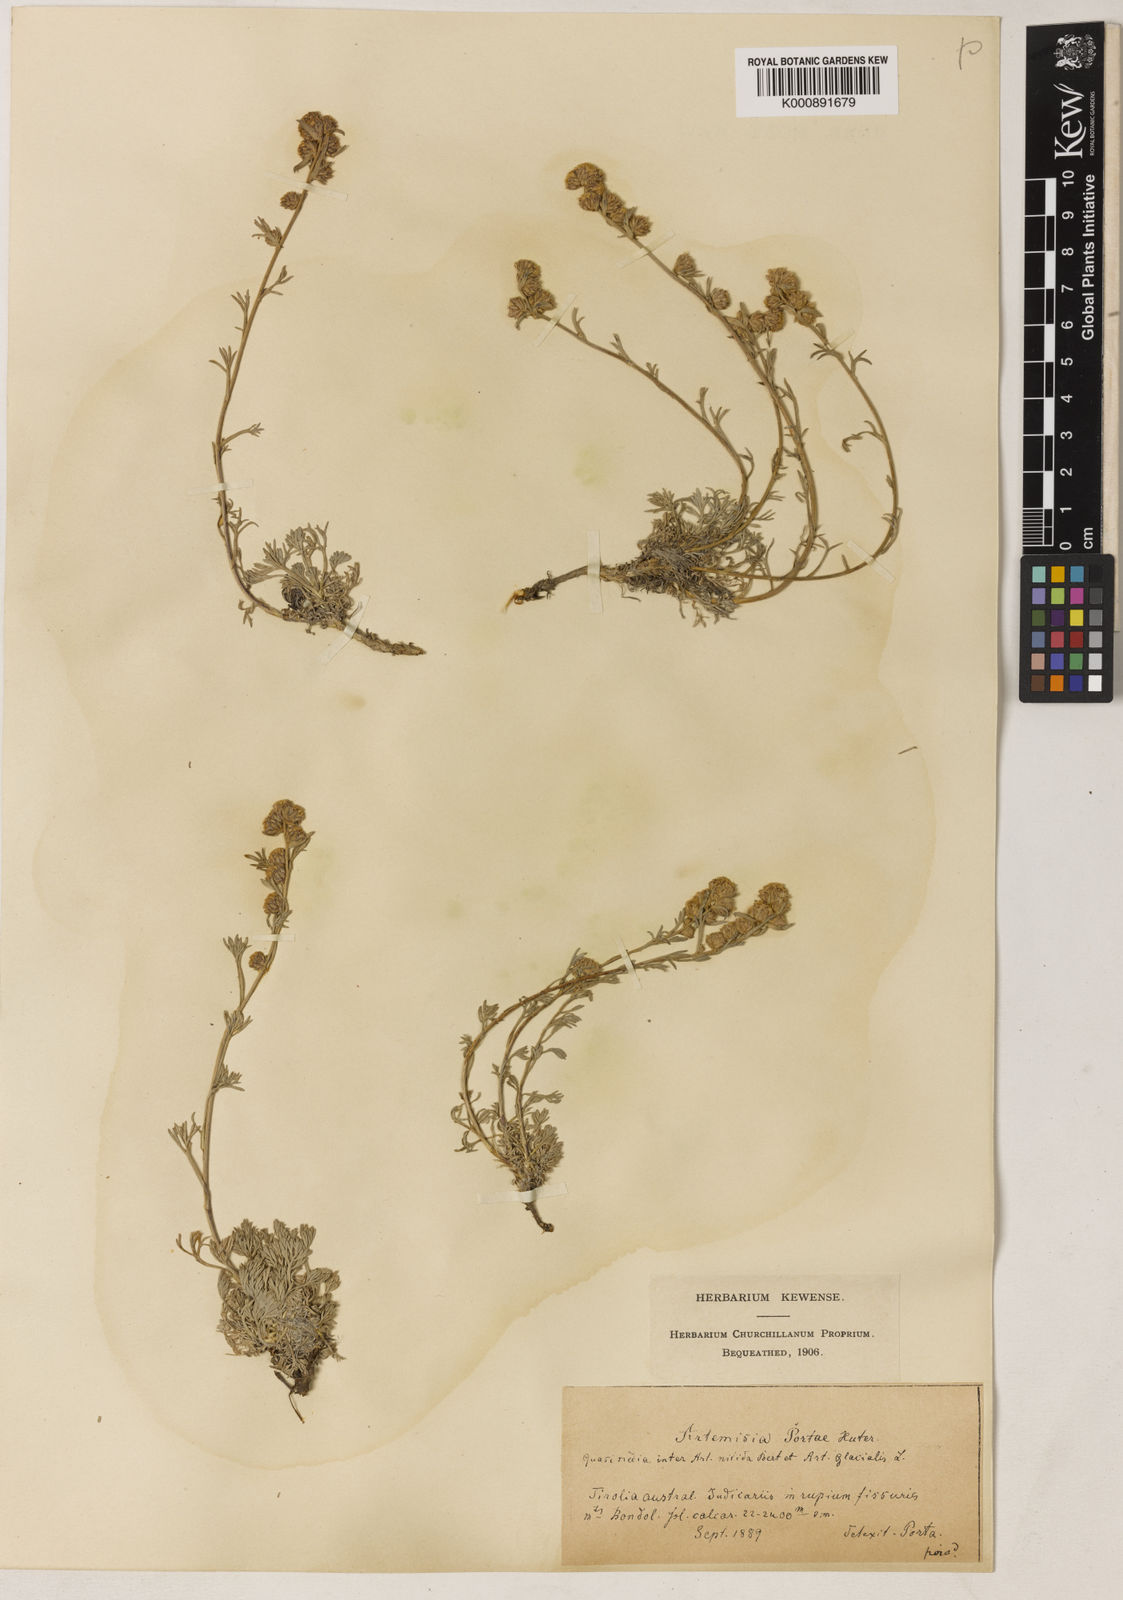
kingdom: Plantae
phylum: Tracheophyta
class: Magnoliopsida
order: Asterales
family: Asteraceae
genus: Artemisia
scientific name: Artemisia nitida
